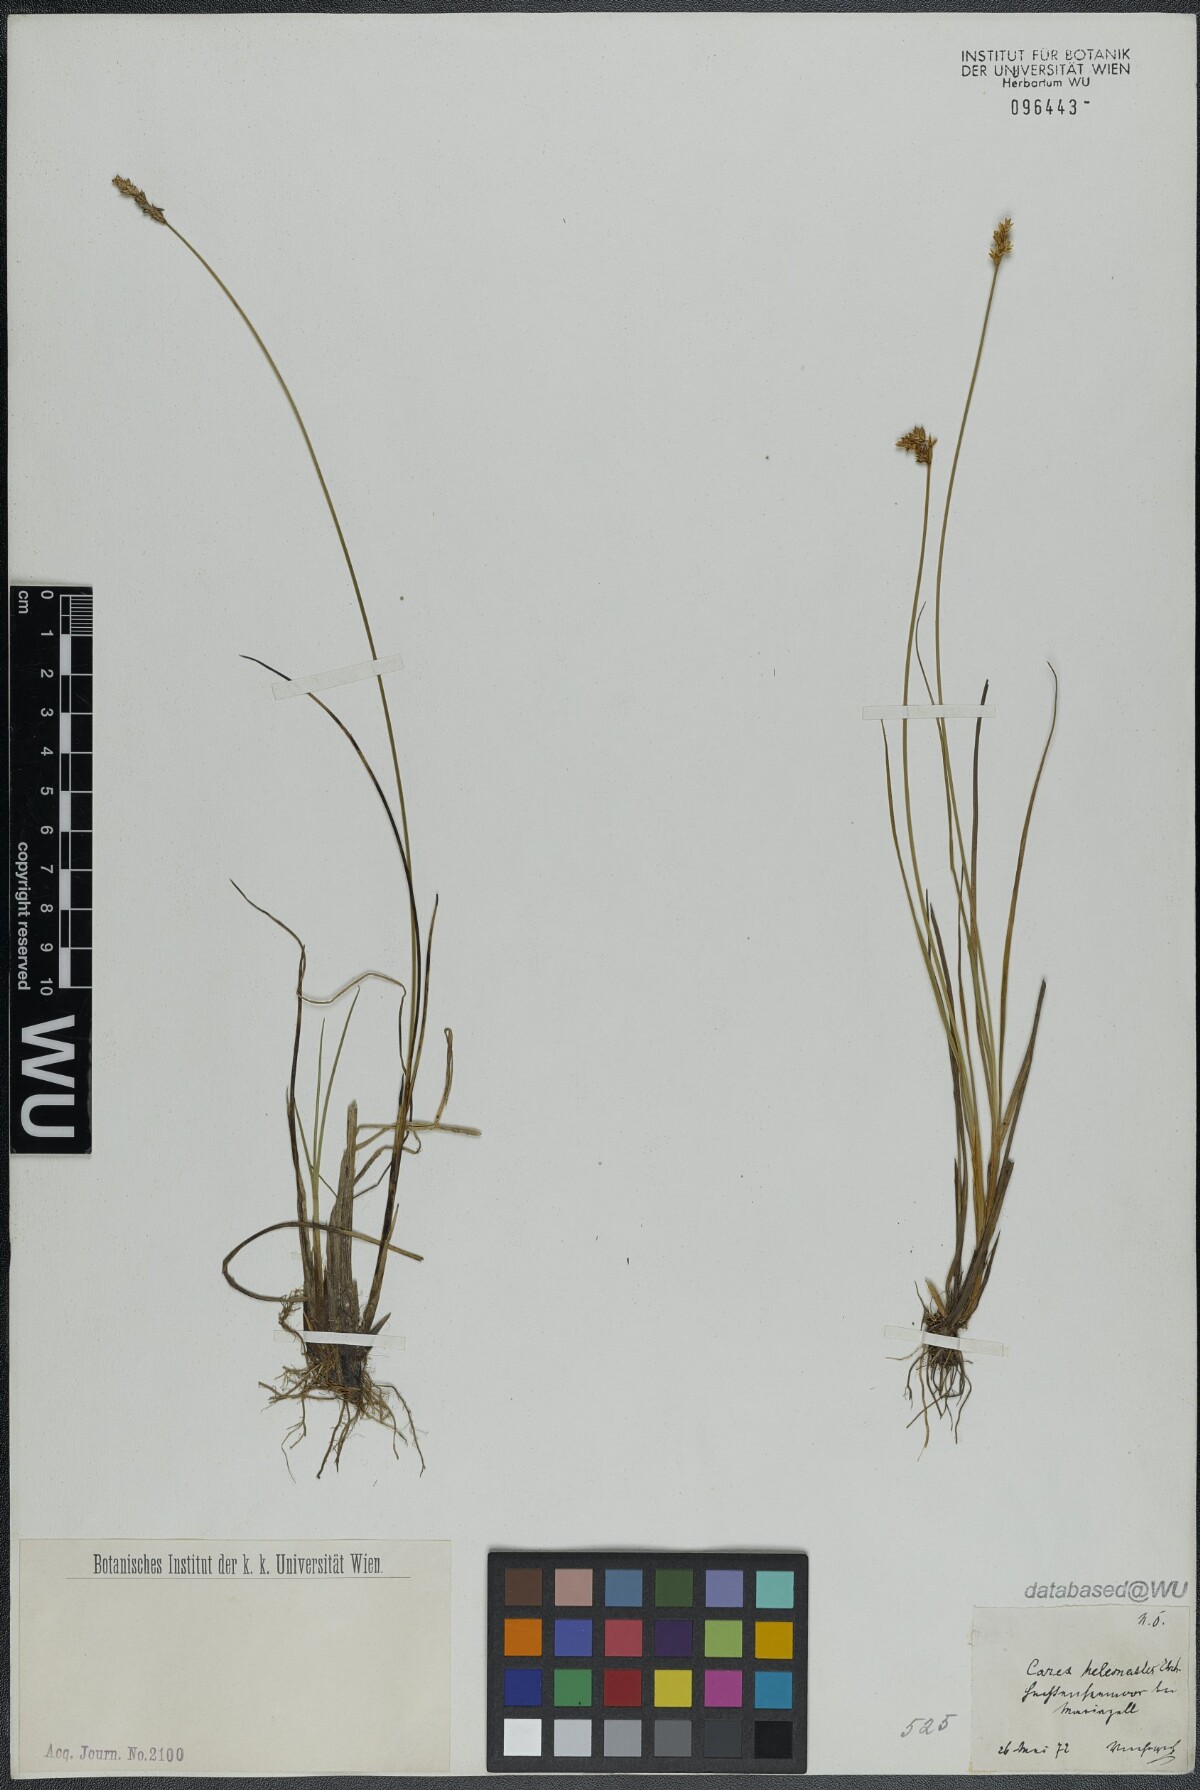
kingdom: Plantae
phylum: Tracheophyta
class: Liliopsida
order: Poales
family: Cyperaceae
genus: Carex
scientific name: Carex heleonastes
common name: Hudson bay sedge
